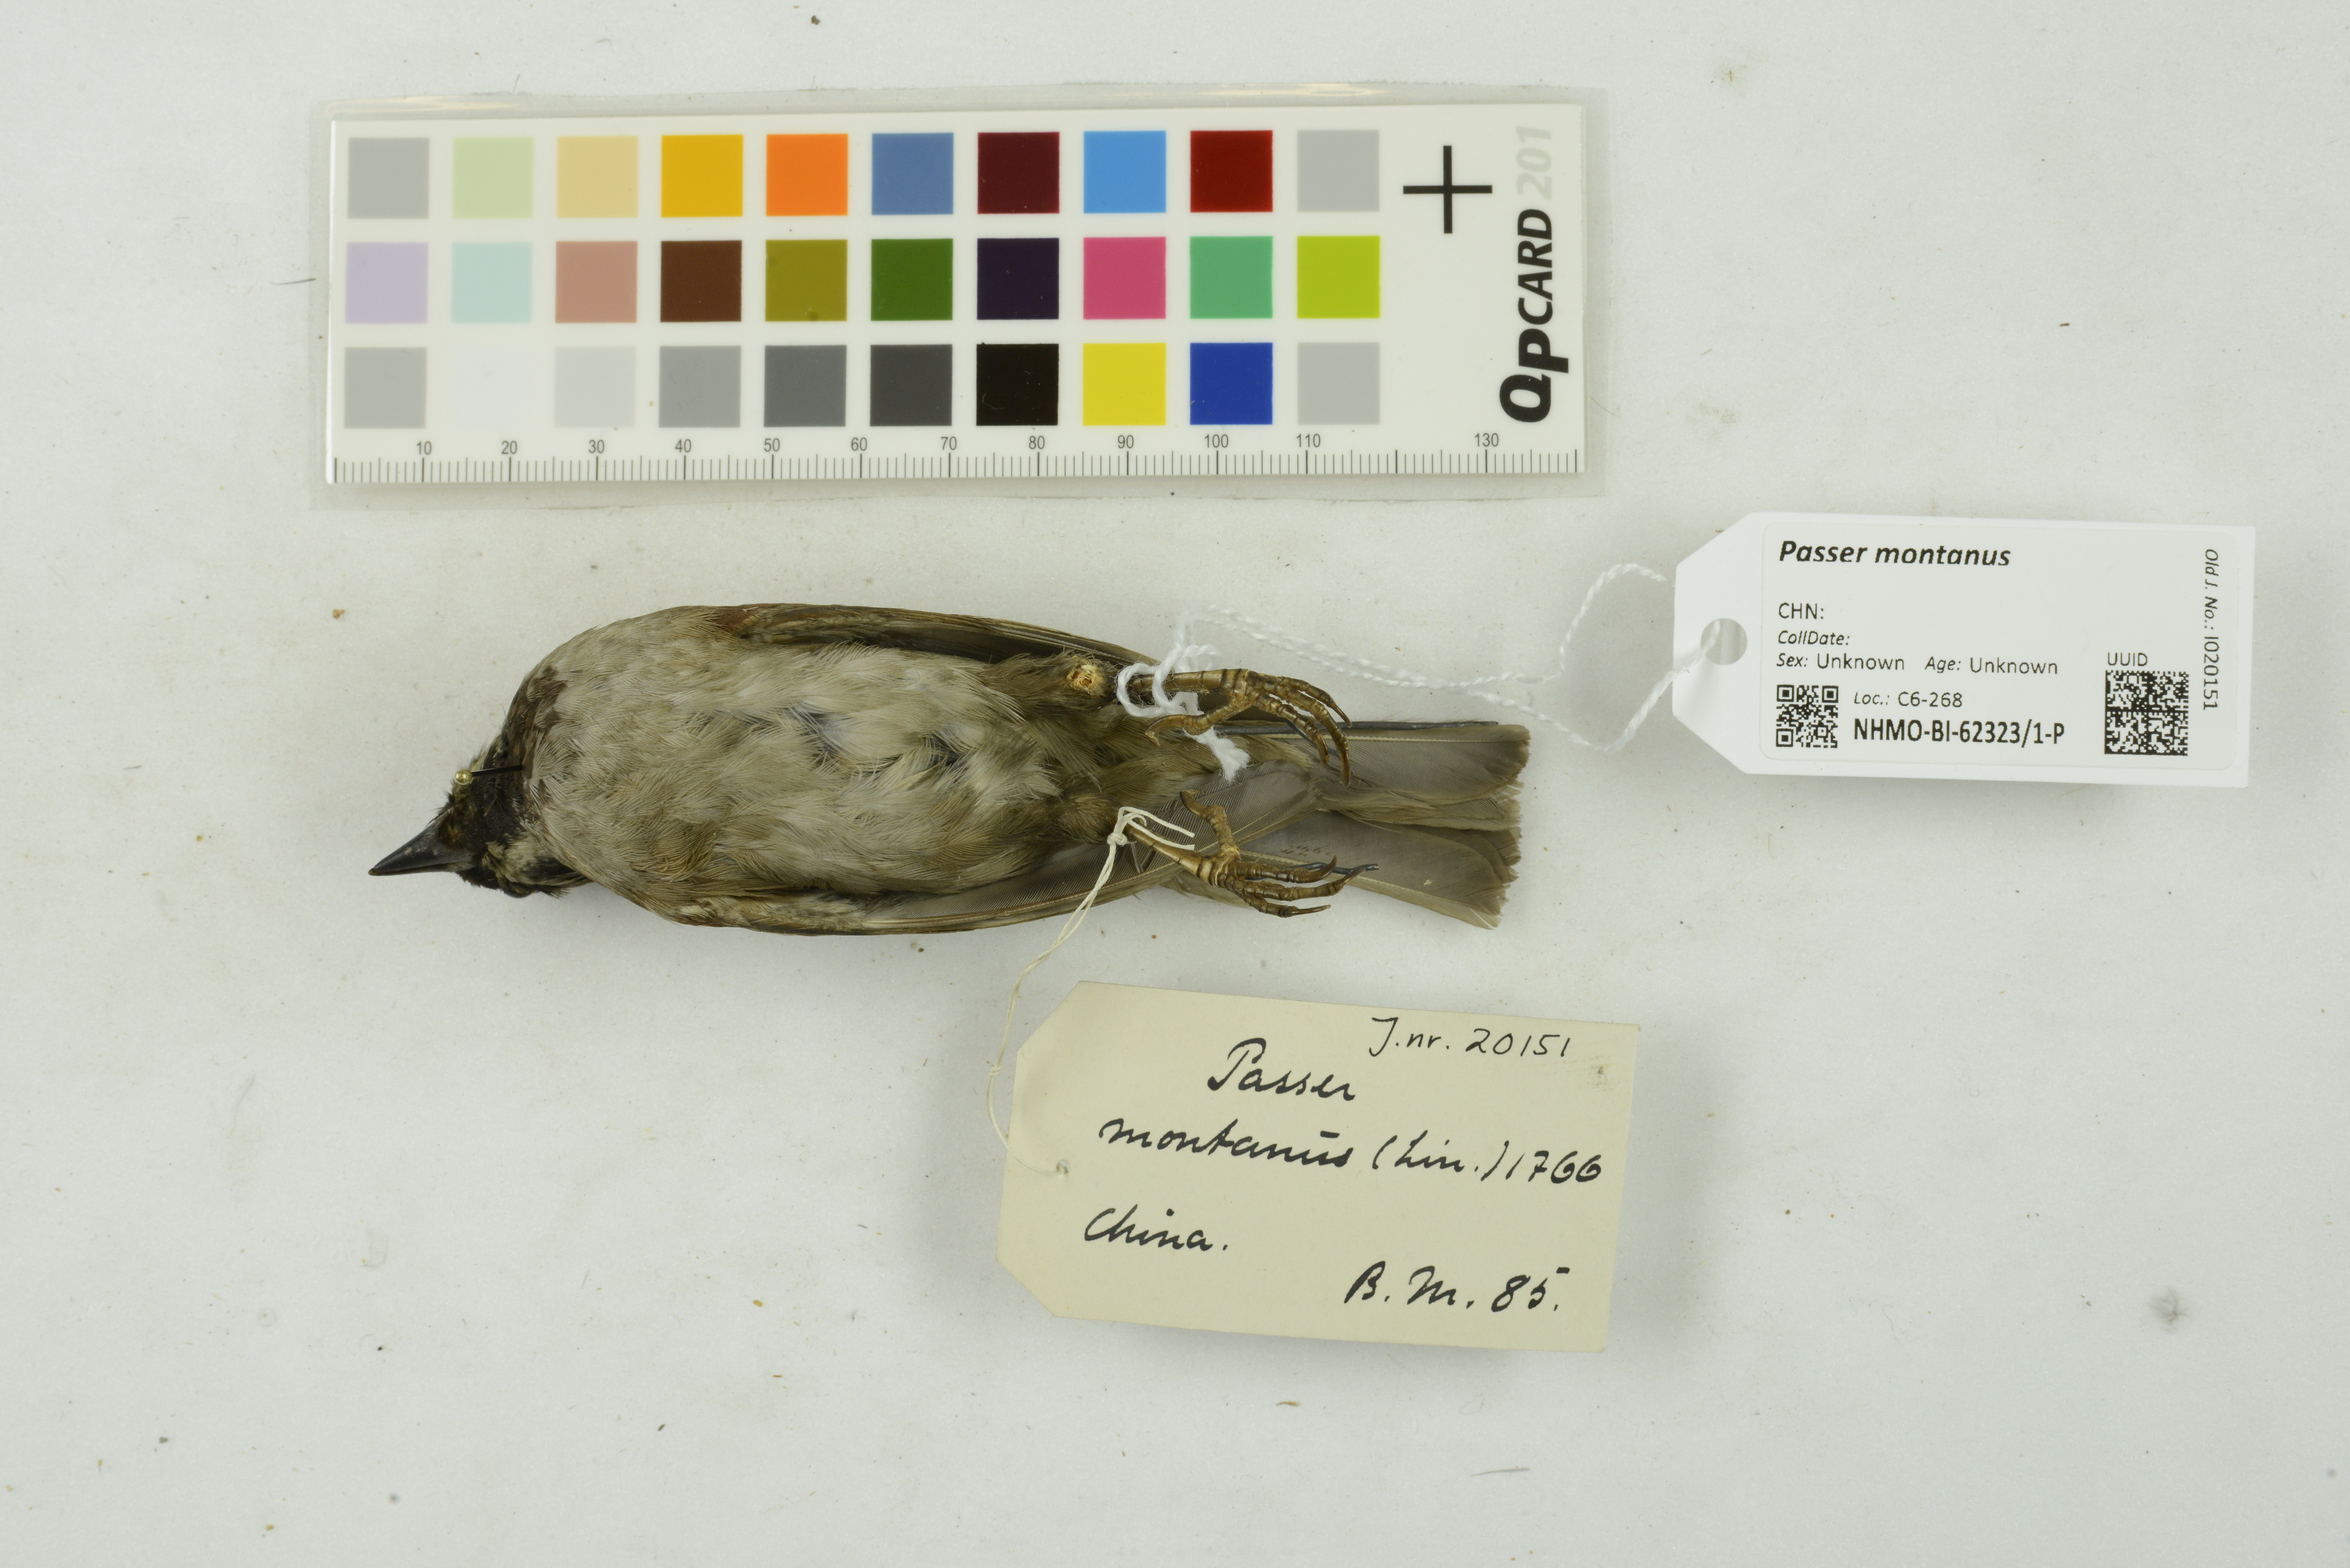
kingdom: Animalia
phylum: Chordata
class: Aves
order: Passeriformes
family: Passeridae
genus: Passer
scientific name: Passer montanus
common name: Eurasian tree sparrow
